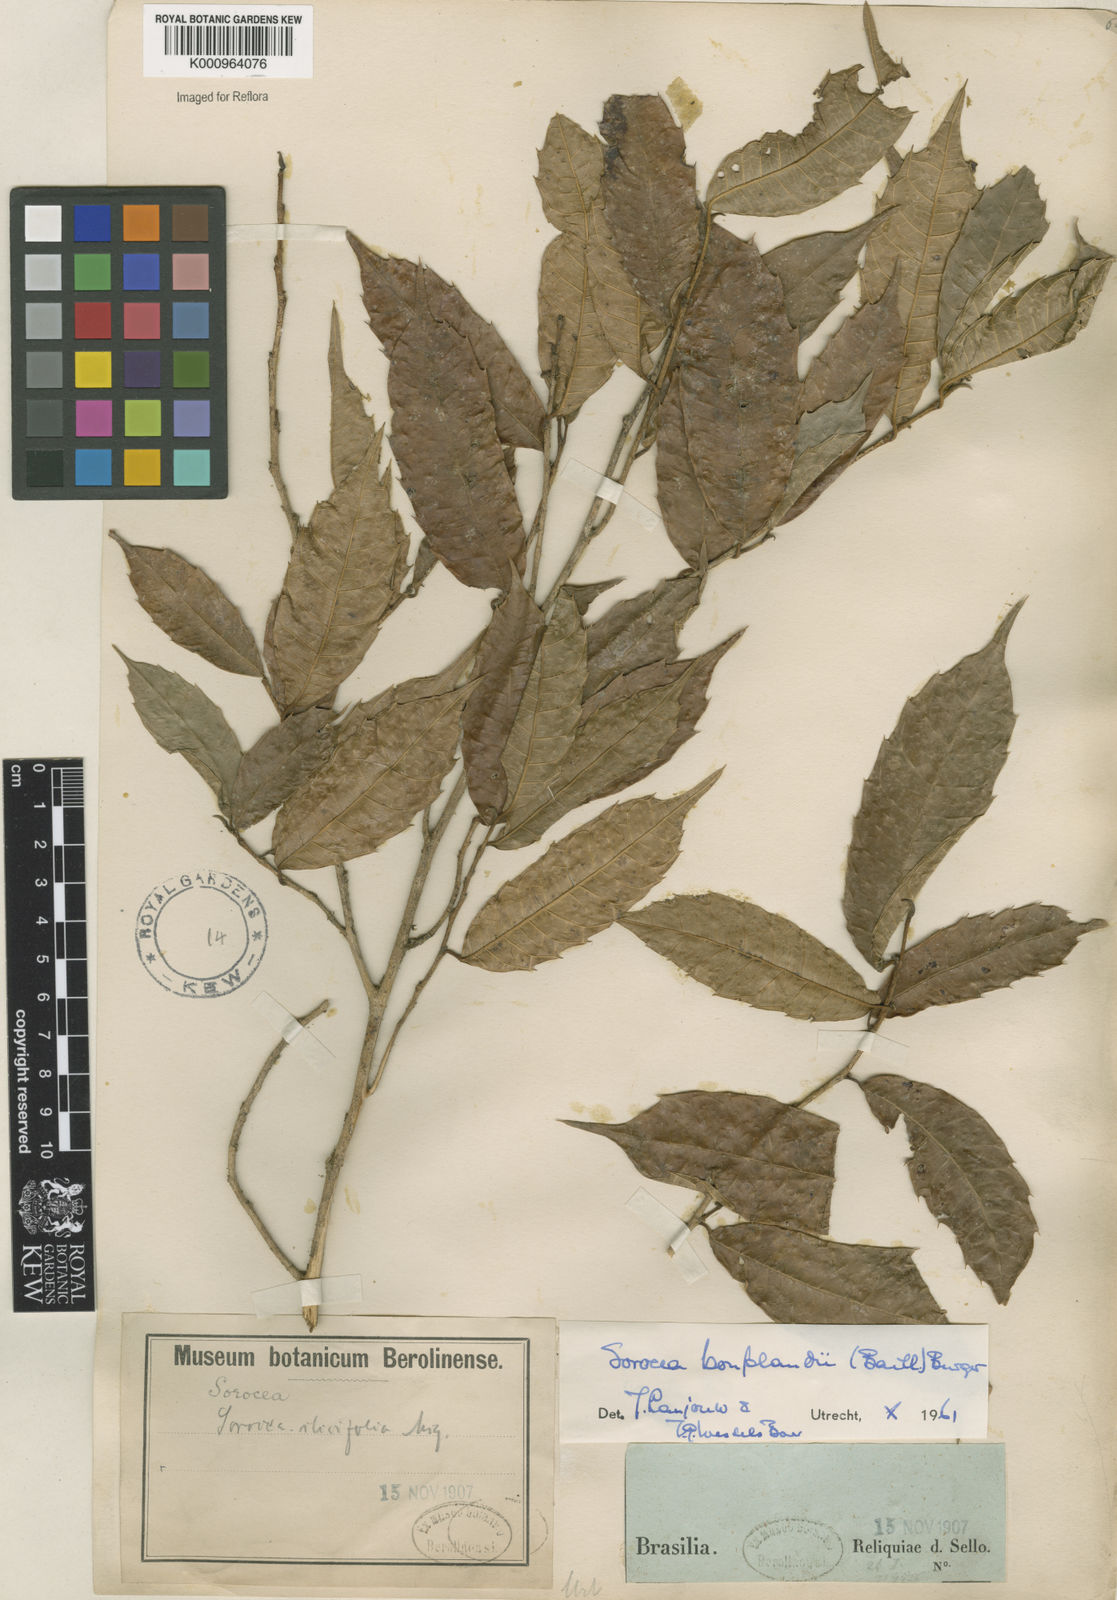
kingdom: Plantae
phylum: Tracheophyta
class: Magnoliopsida
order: Rosales
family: Moraceae
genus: Sorocea
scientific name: Sorocea
